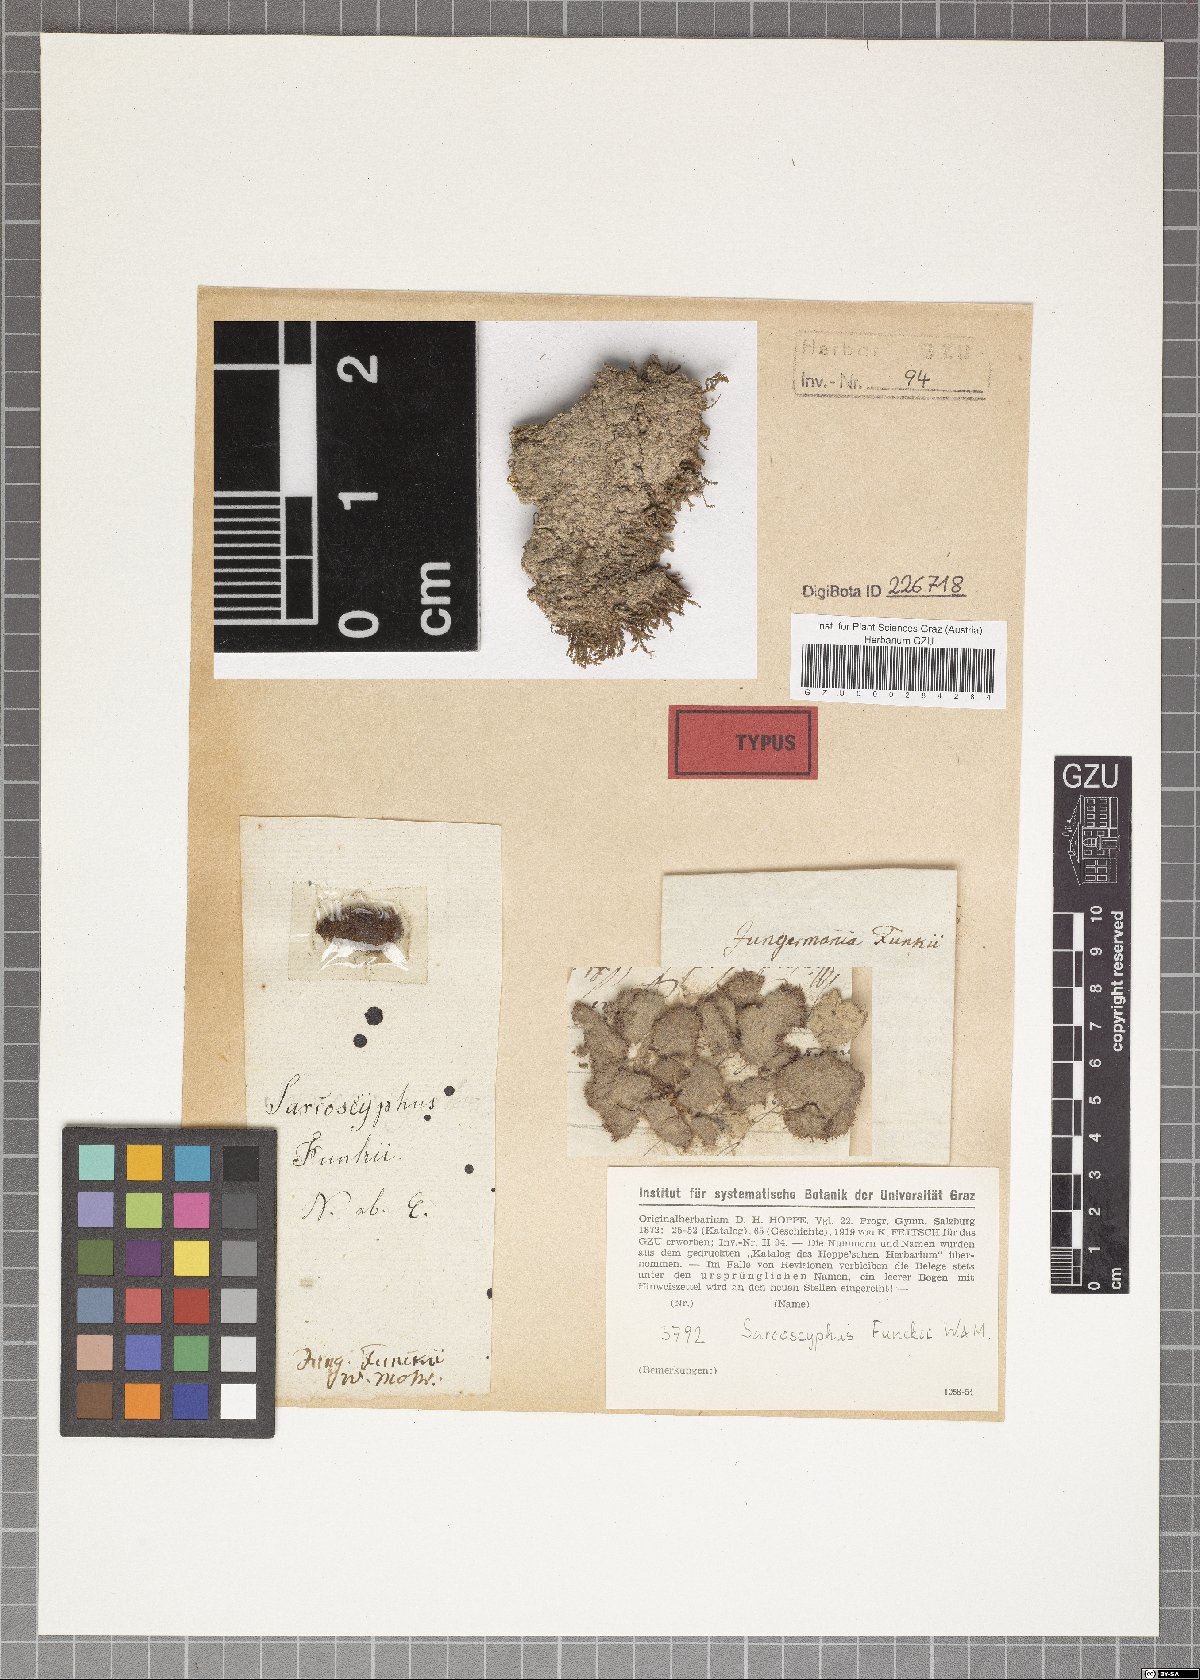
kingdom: Plantae
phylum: Marchantiophyta
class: Jungermanniopsida
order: Jungermanniales
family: Gymnomitriaceae
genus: Marsupella
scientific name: Marsupella funckii
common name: Funck's rustwort
